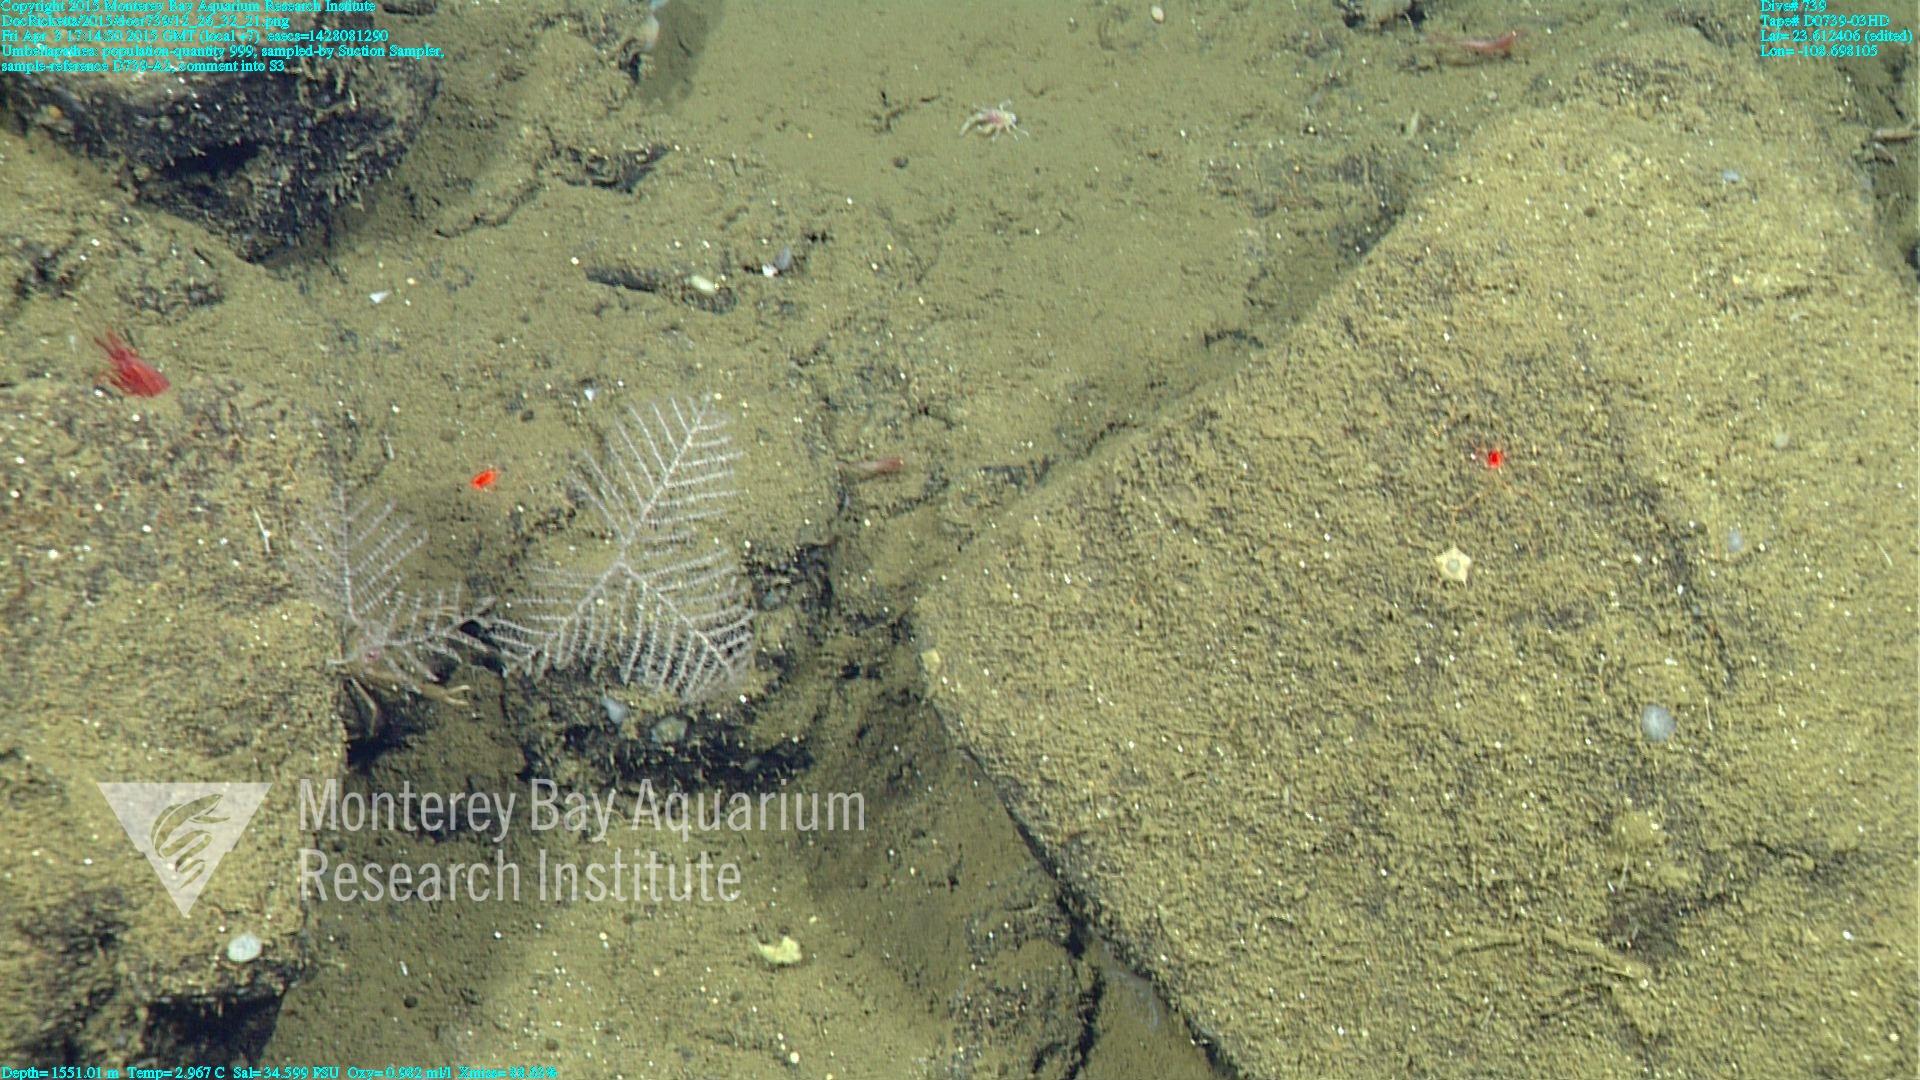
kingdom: Animalia
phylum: Cnidaria
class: Anthozoa
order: Antipatharia
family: Schizopathidae
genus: Umbellapathes
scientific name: Umbellapathes
